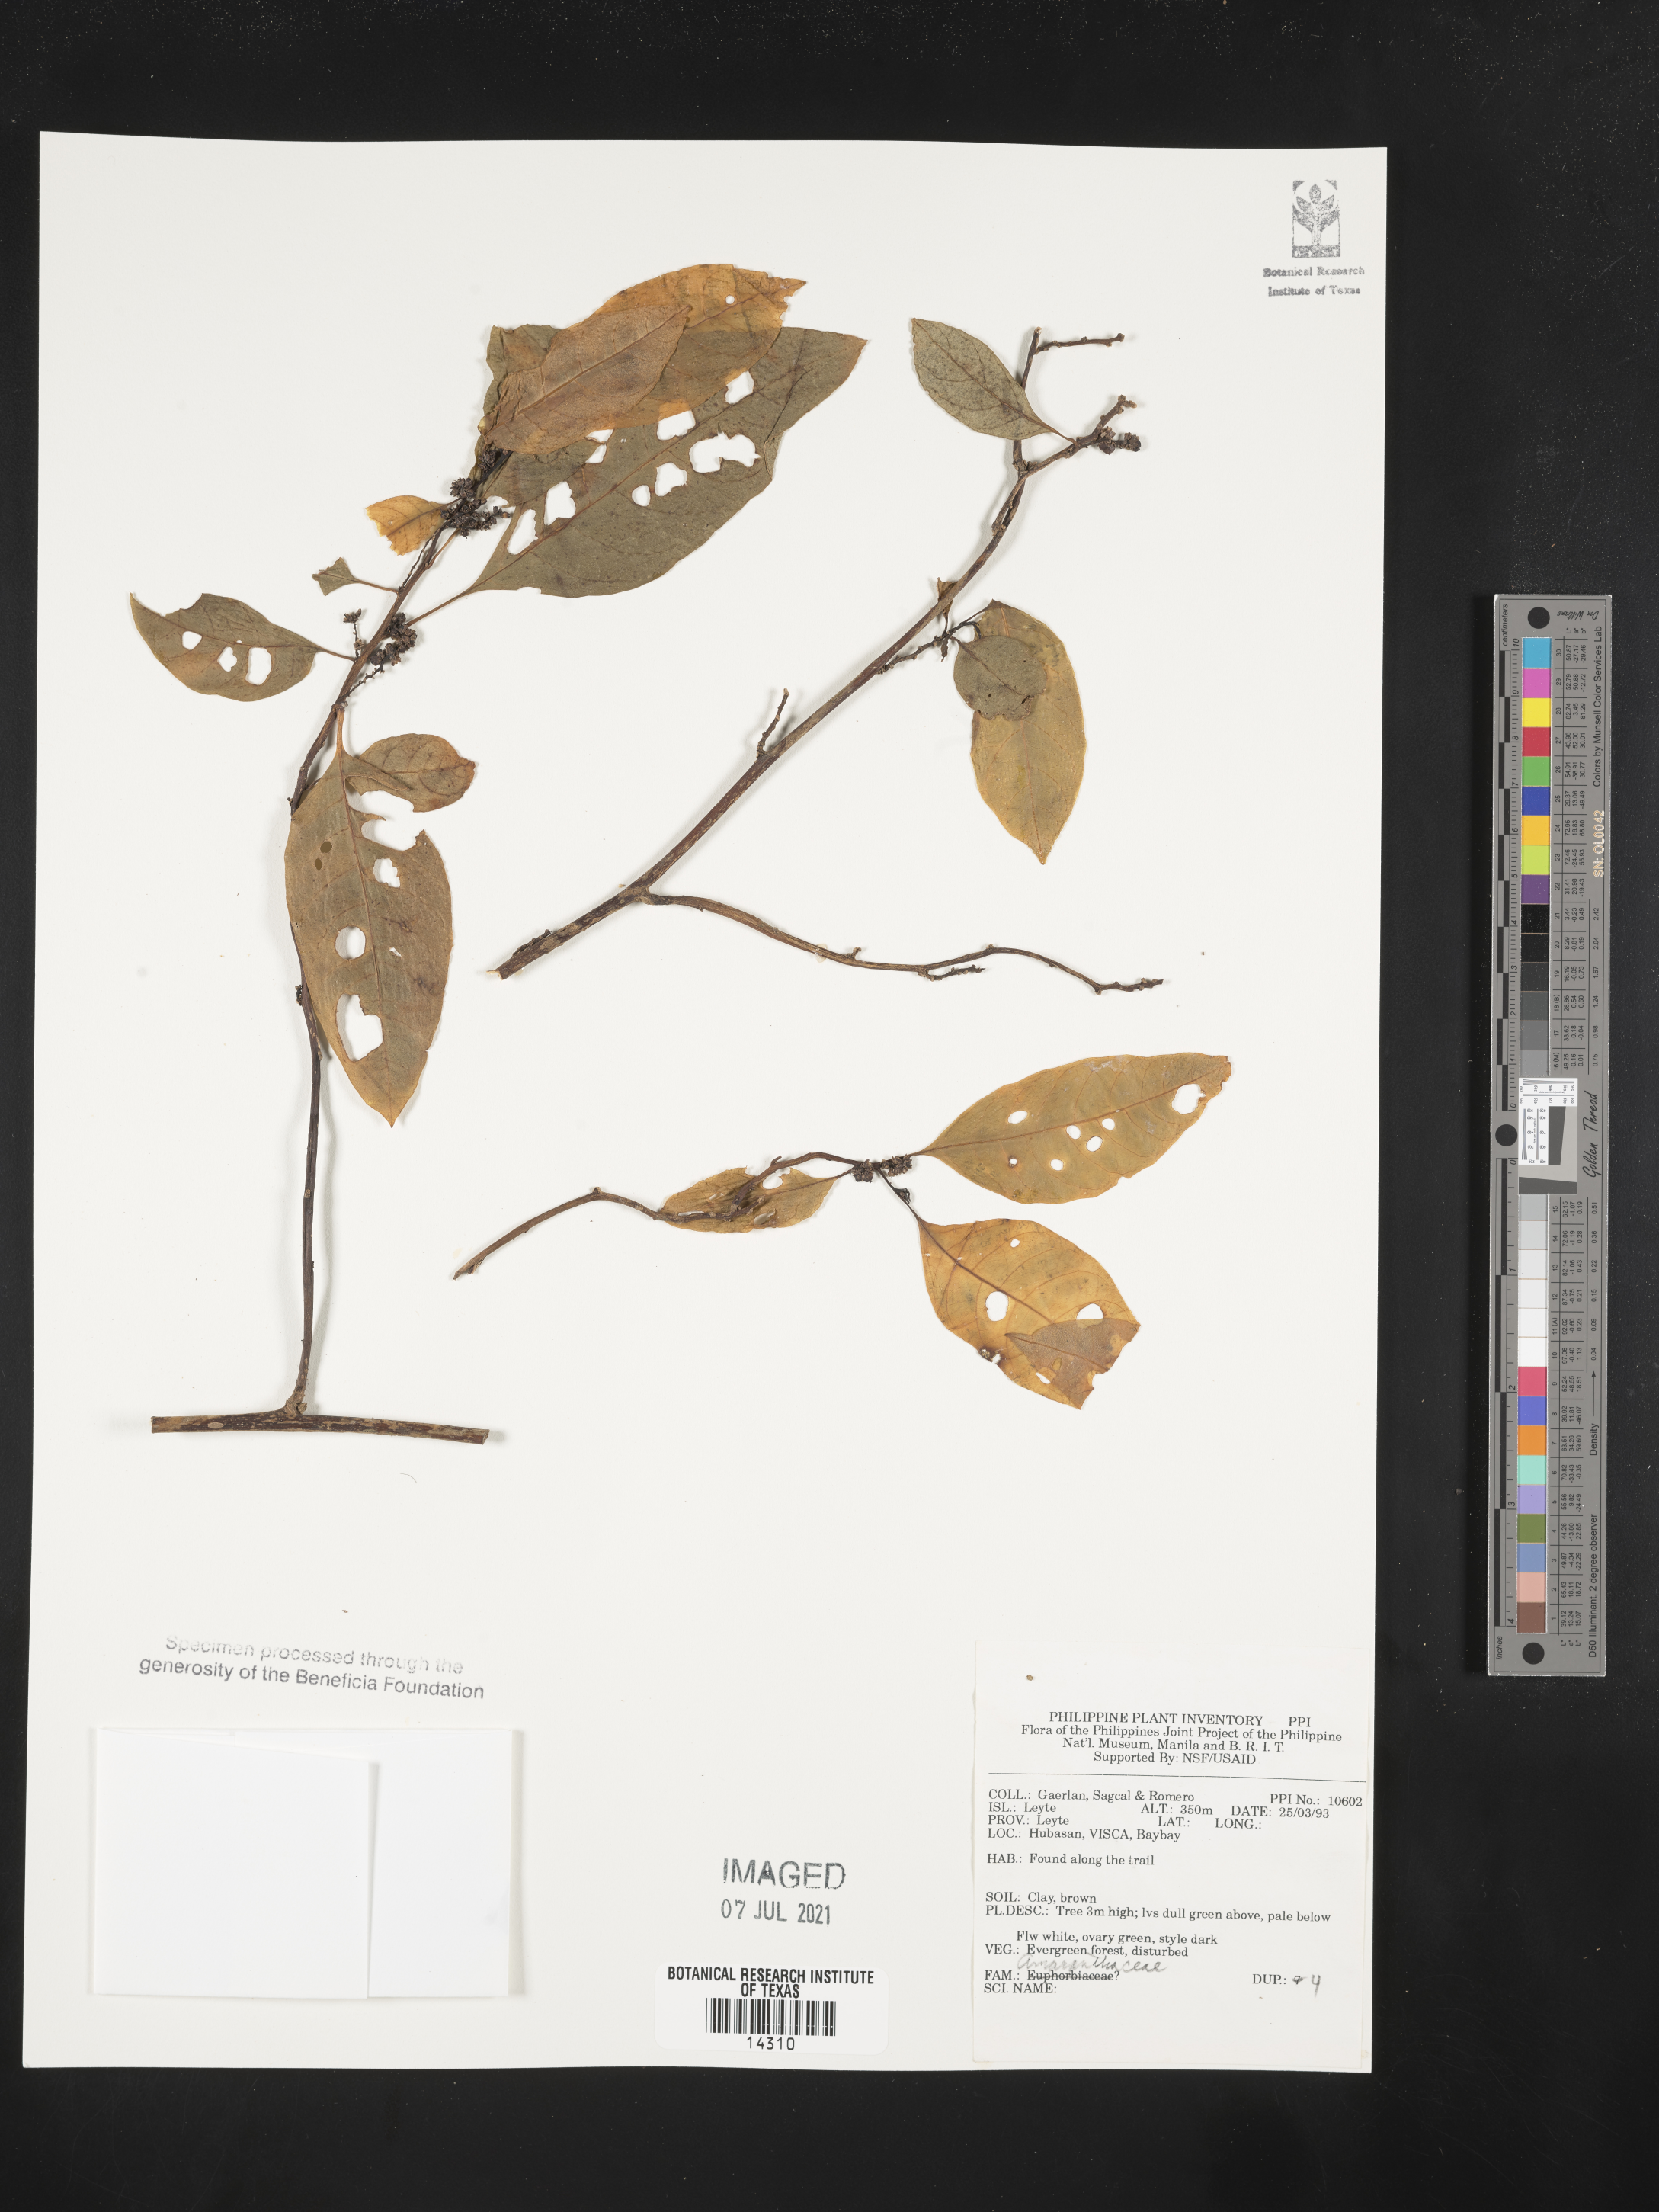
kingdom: Plantae
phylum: Tracheophyta
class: Magnoliopsida
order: Caryophyllales
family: Amaranthaceae
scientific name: Amaranthaceae
